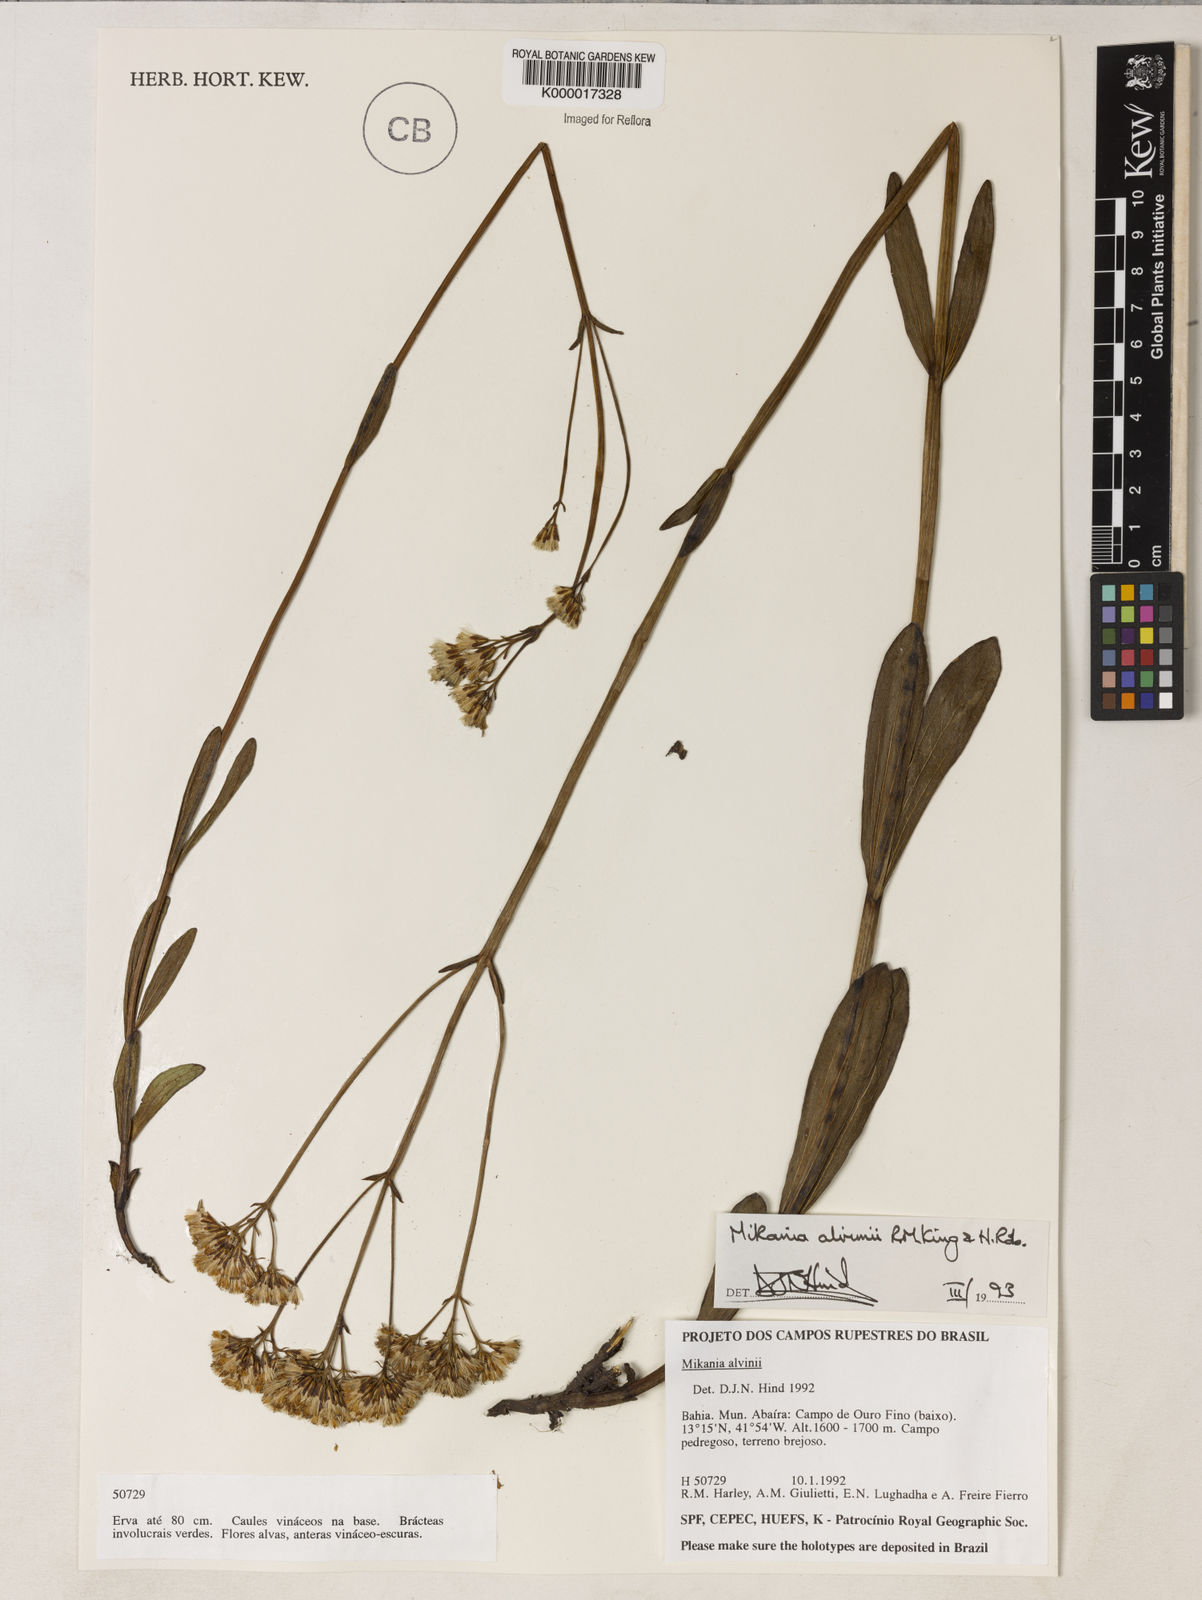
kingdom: Plantae
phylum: Tracheophyta
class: Magnoliopsida
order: Asterales
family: Asteraceae
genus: Mikania
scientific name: Mikania alvimii
